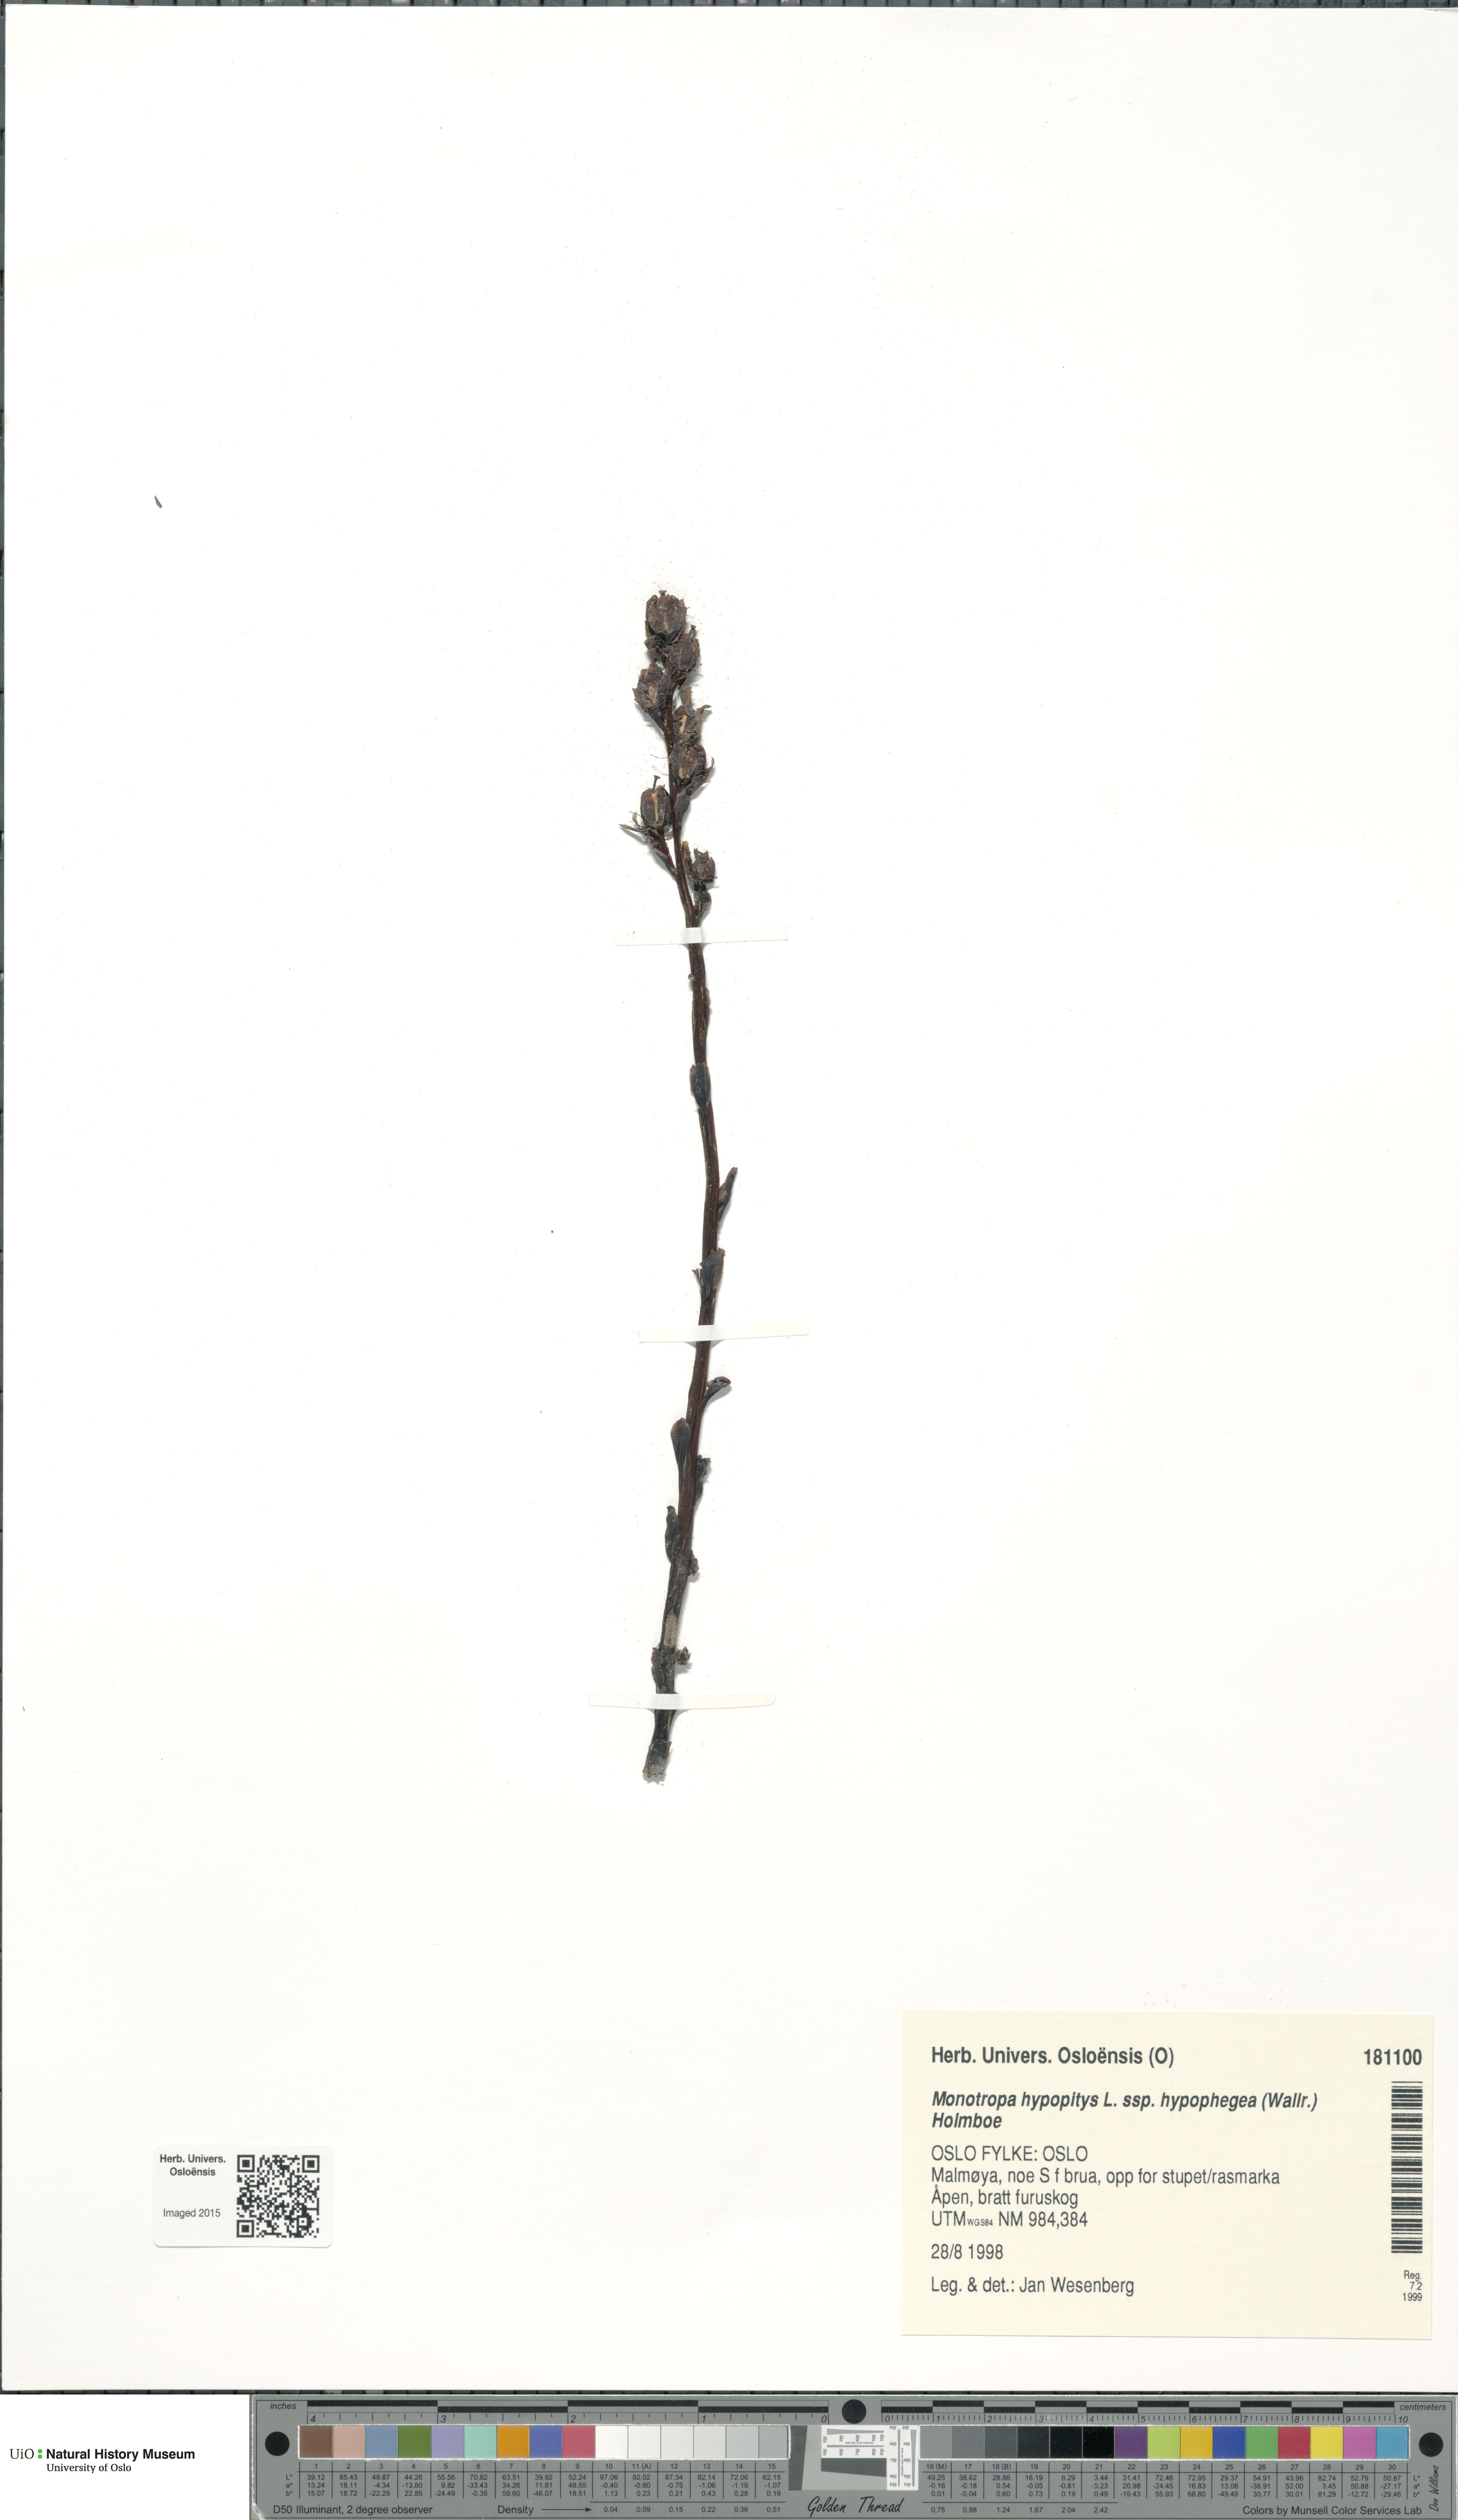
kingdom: Plantae
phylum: Tracheophyta
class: Magnoliopsida
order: Ericales
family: Ericaceae
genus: Hypopitys
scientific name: Hypopitys hypophegea
